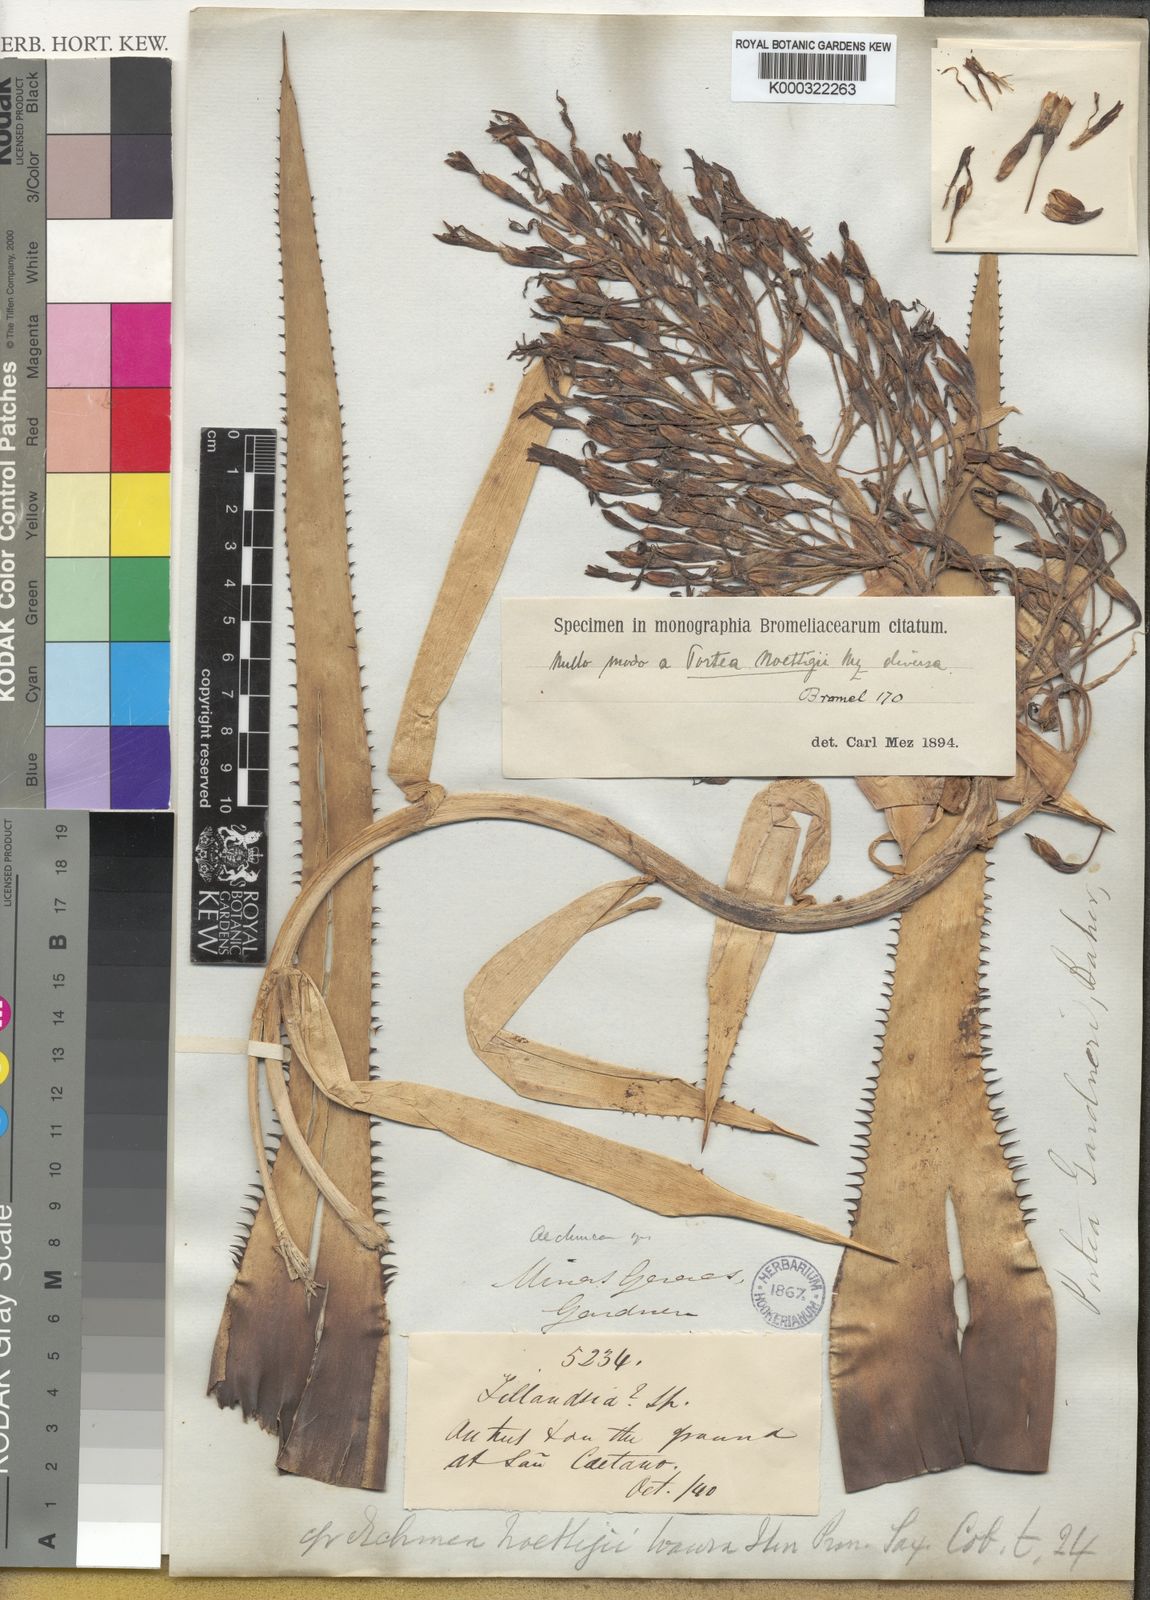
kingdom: Plantae
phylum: Tracheophyta
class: Liliopsida
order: Poales
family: Bromeliaceae
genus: Portea
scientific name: Portea petropolitana
